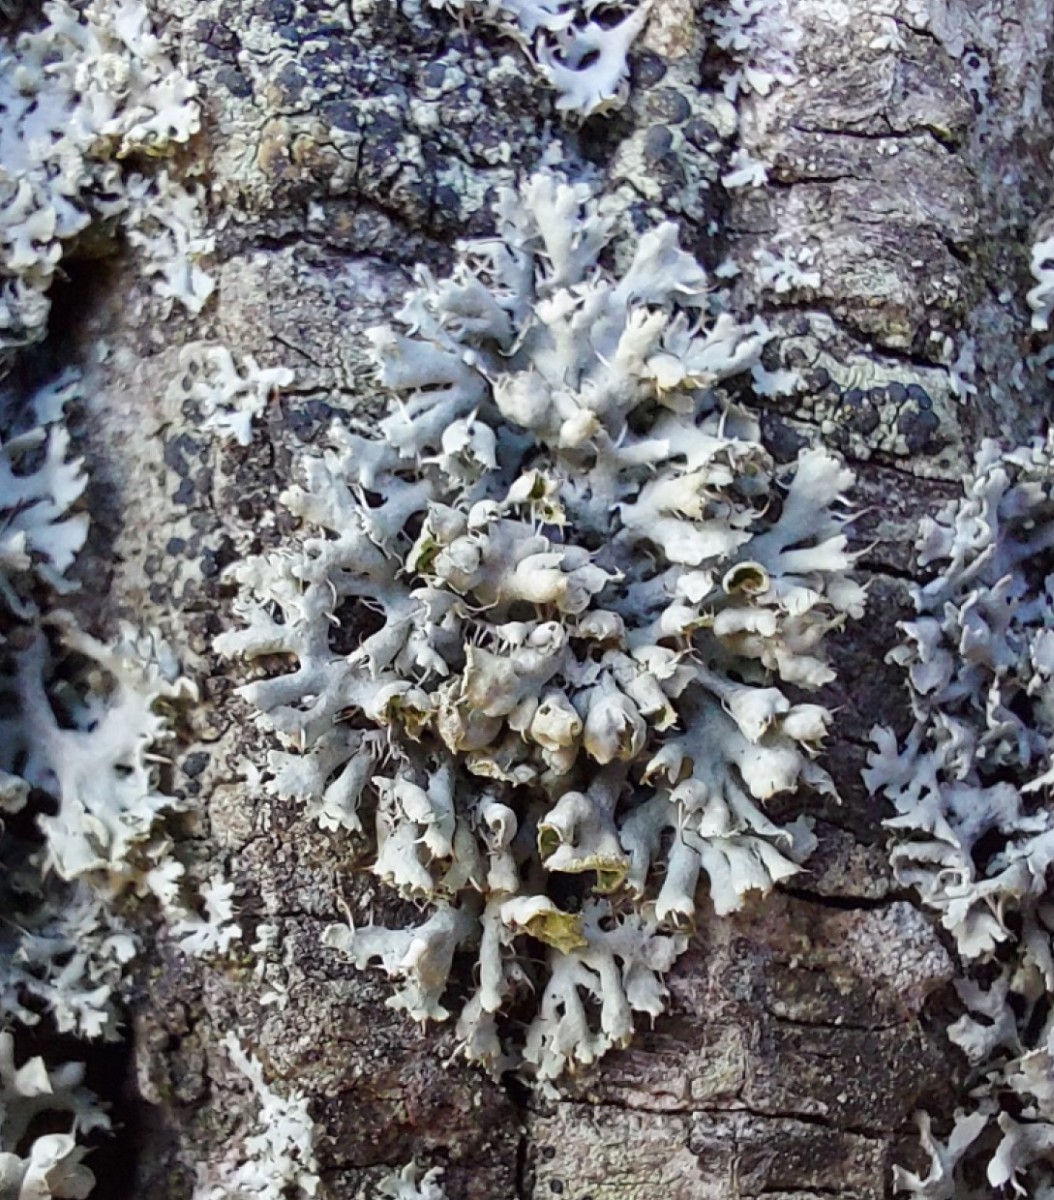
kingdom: Fungi
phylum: Ascomycota
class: Lecanoromycetes
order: Caliciales
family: Physciaceae
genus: Physcia
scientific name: Physcia adscendens
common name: hætte-rosetlav
